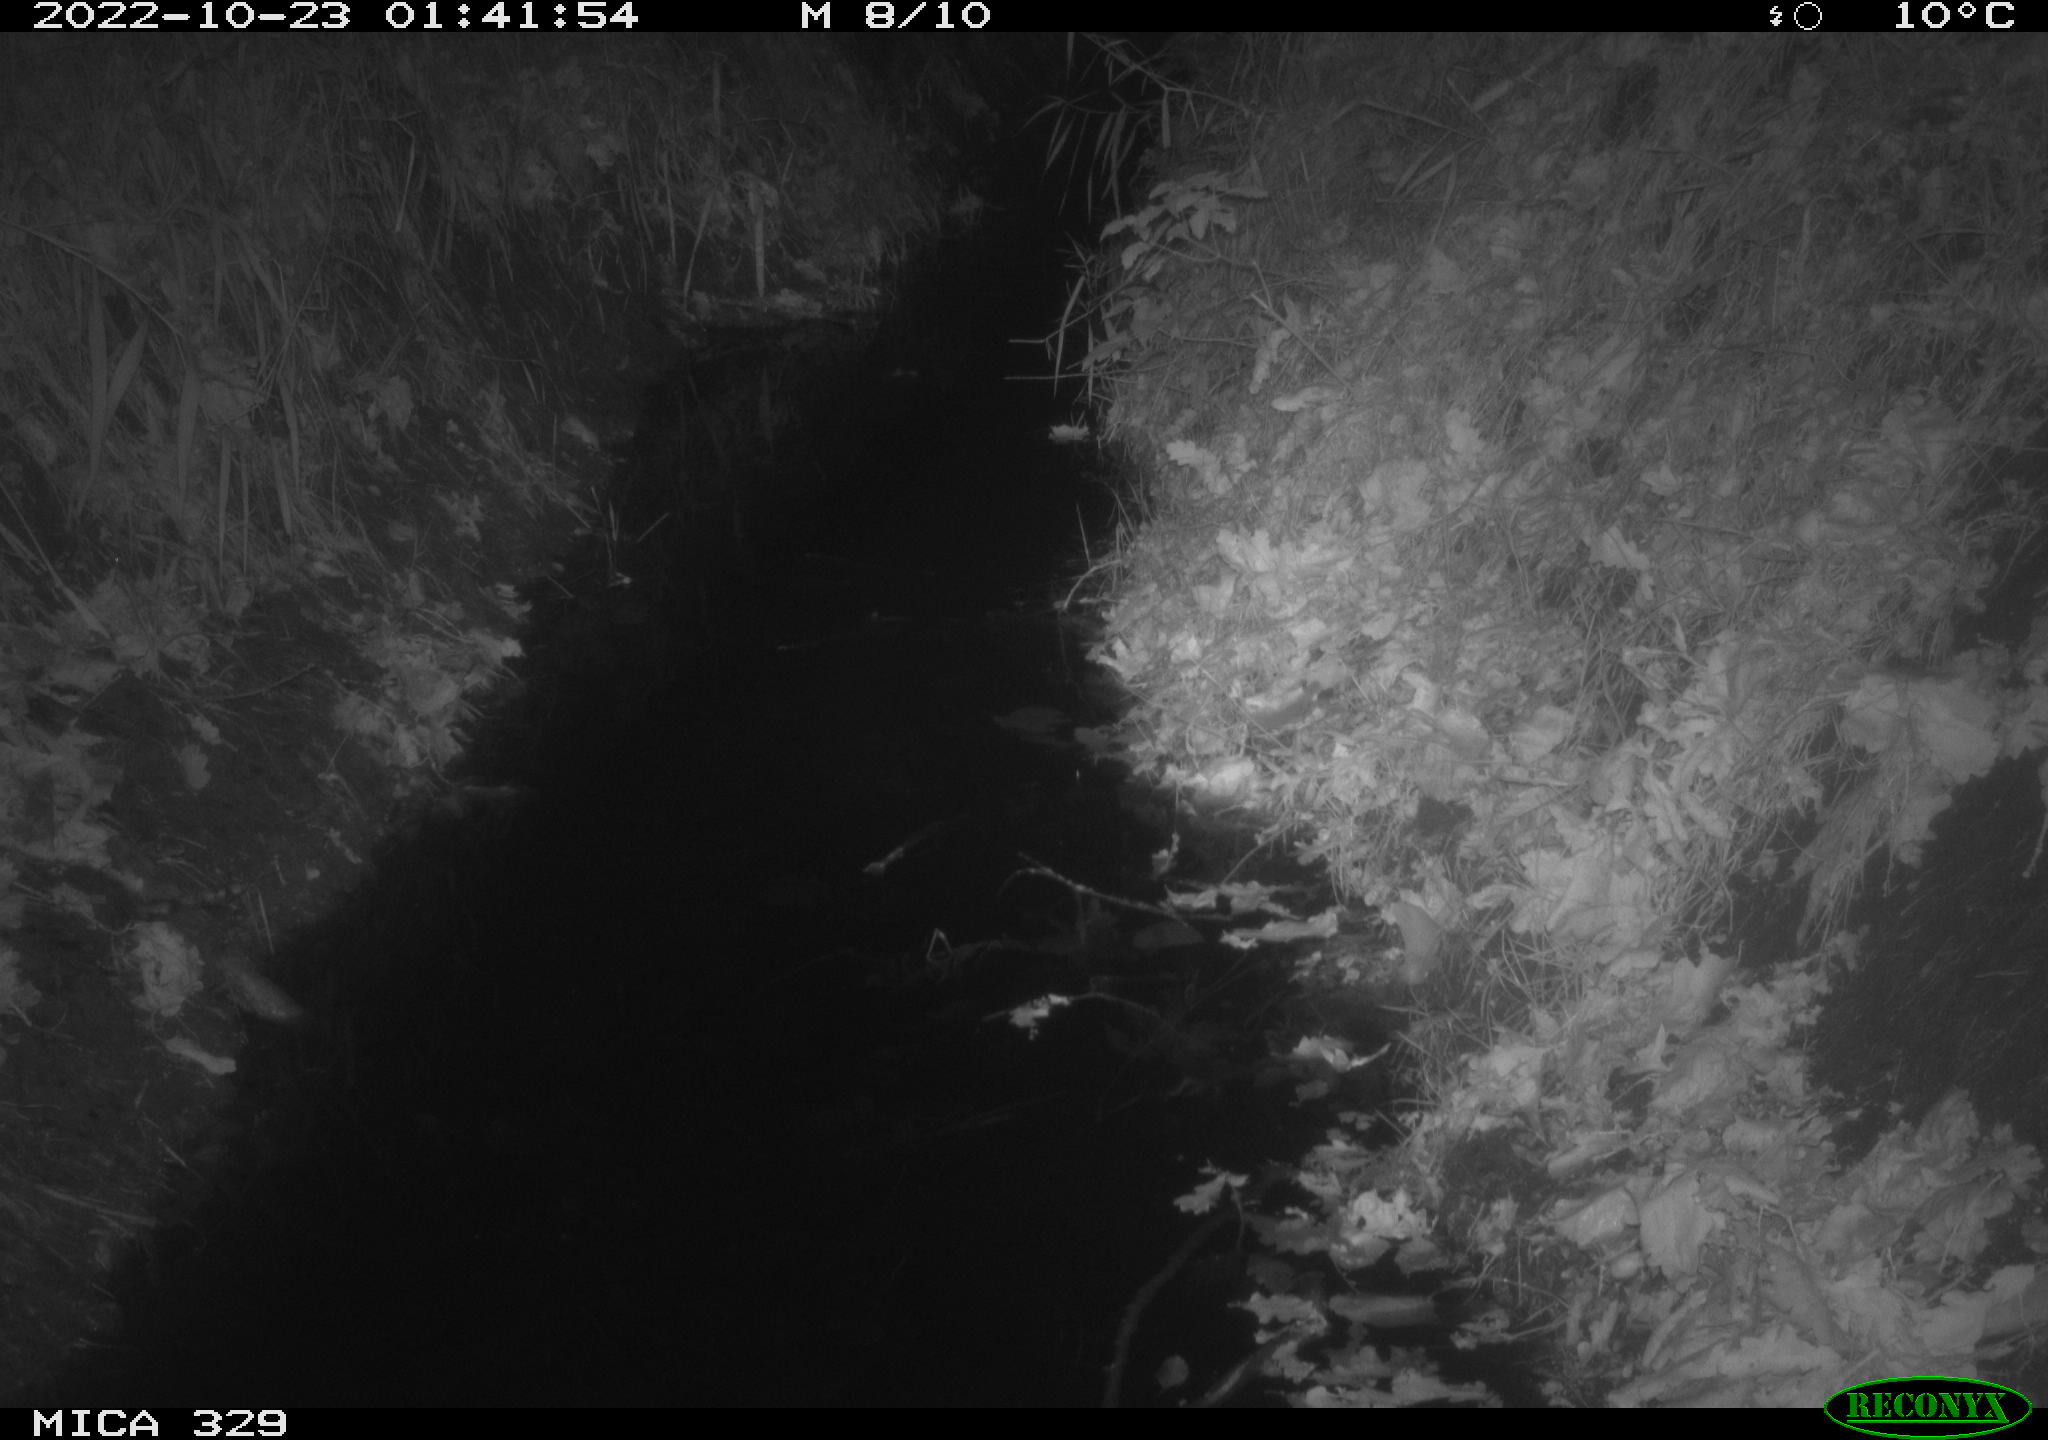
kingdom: Animalia
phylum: Chordata
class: Mammalia
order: Rodentia
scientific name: Rodentia
